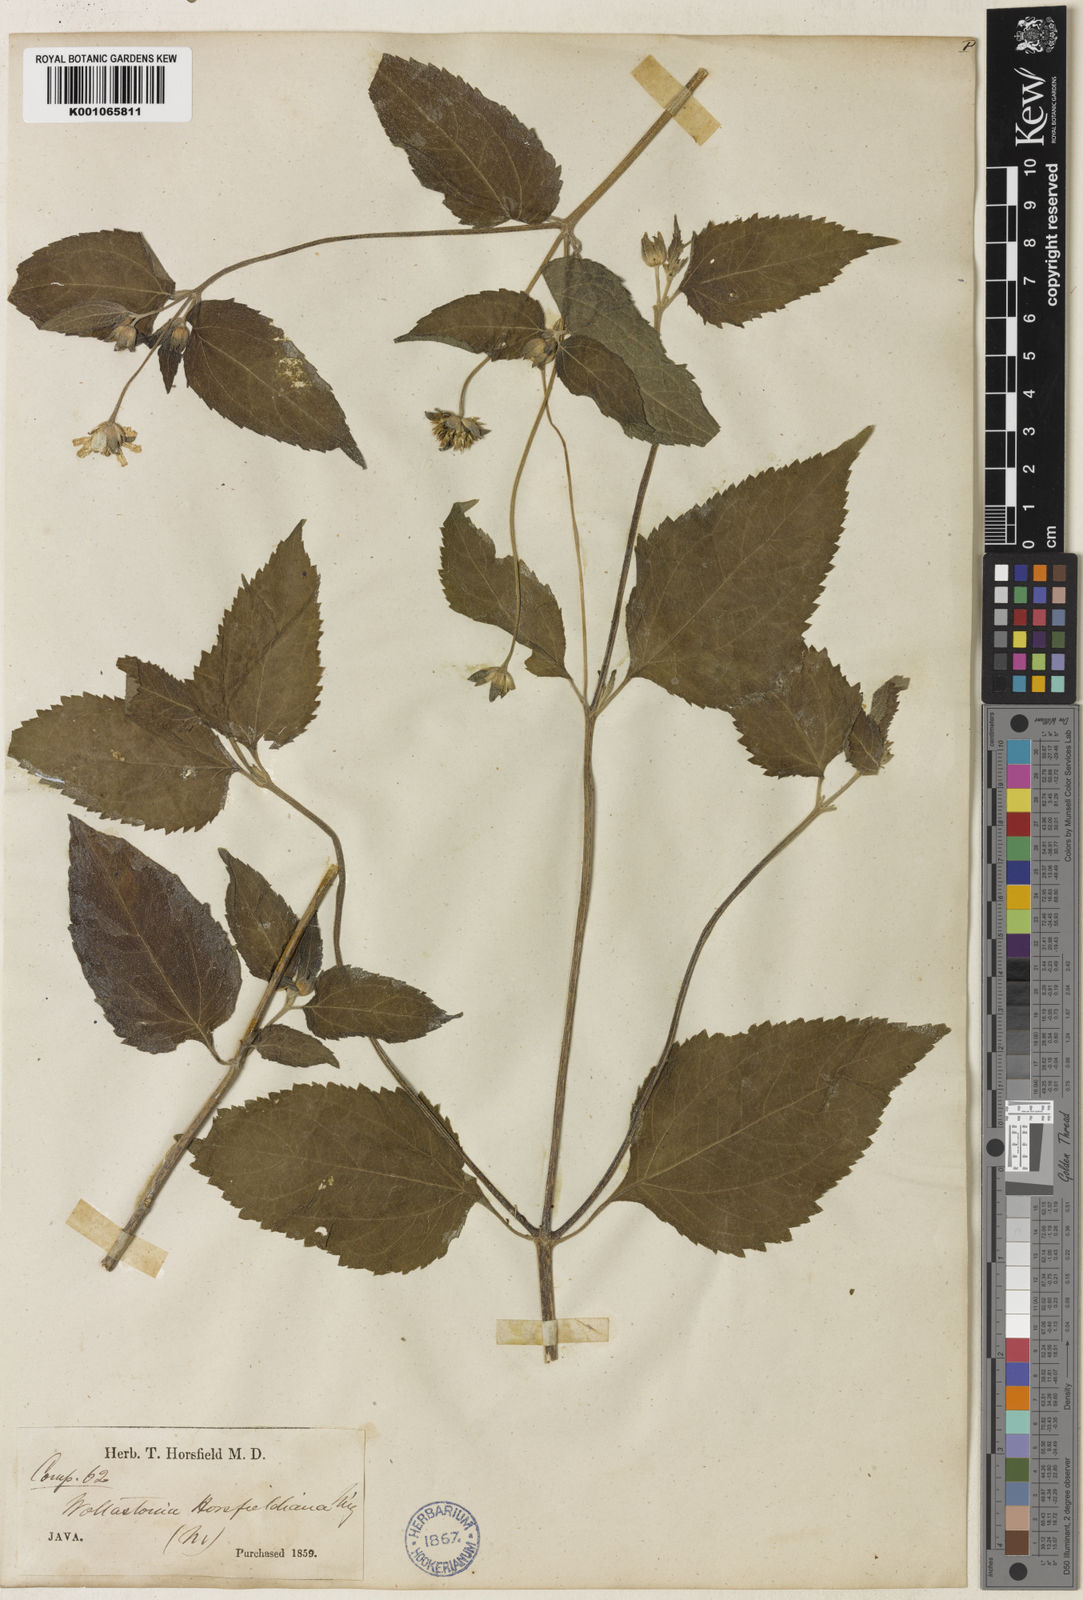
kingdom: Plantae
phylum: Tracheophyta
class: Magnoliopsida
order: Asterales
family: Asteraceae
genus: Indocypraea
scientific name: Indocypraea montana
